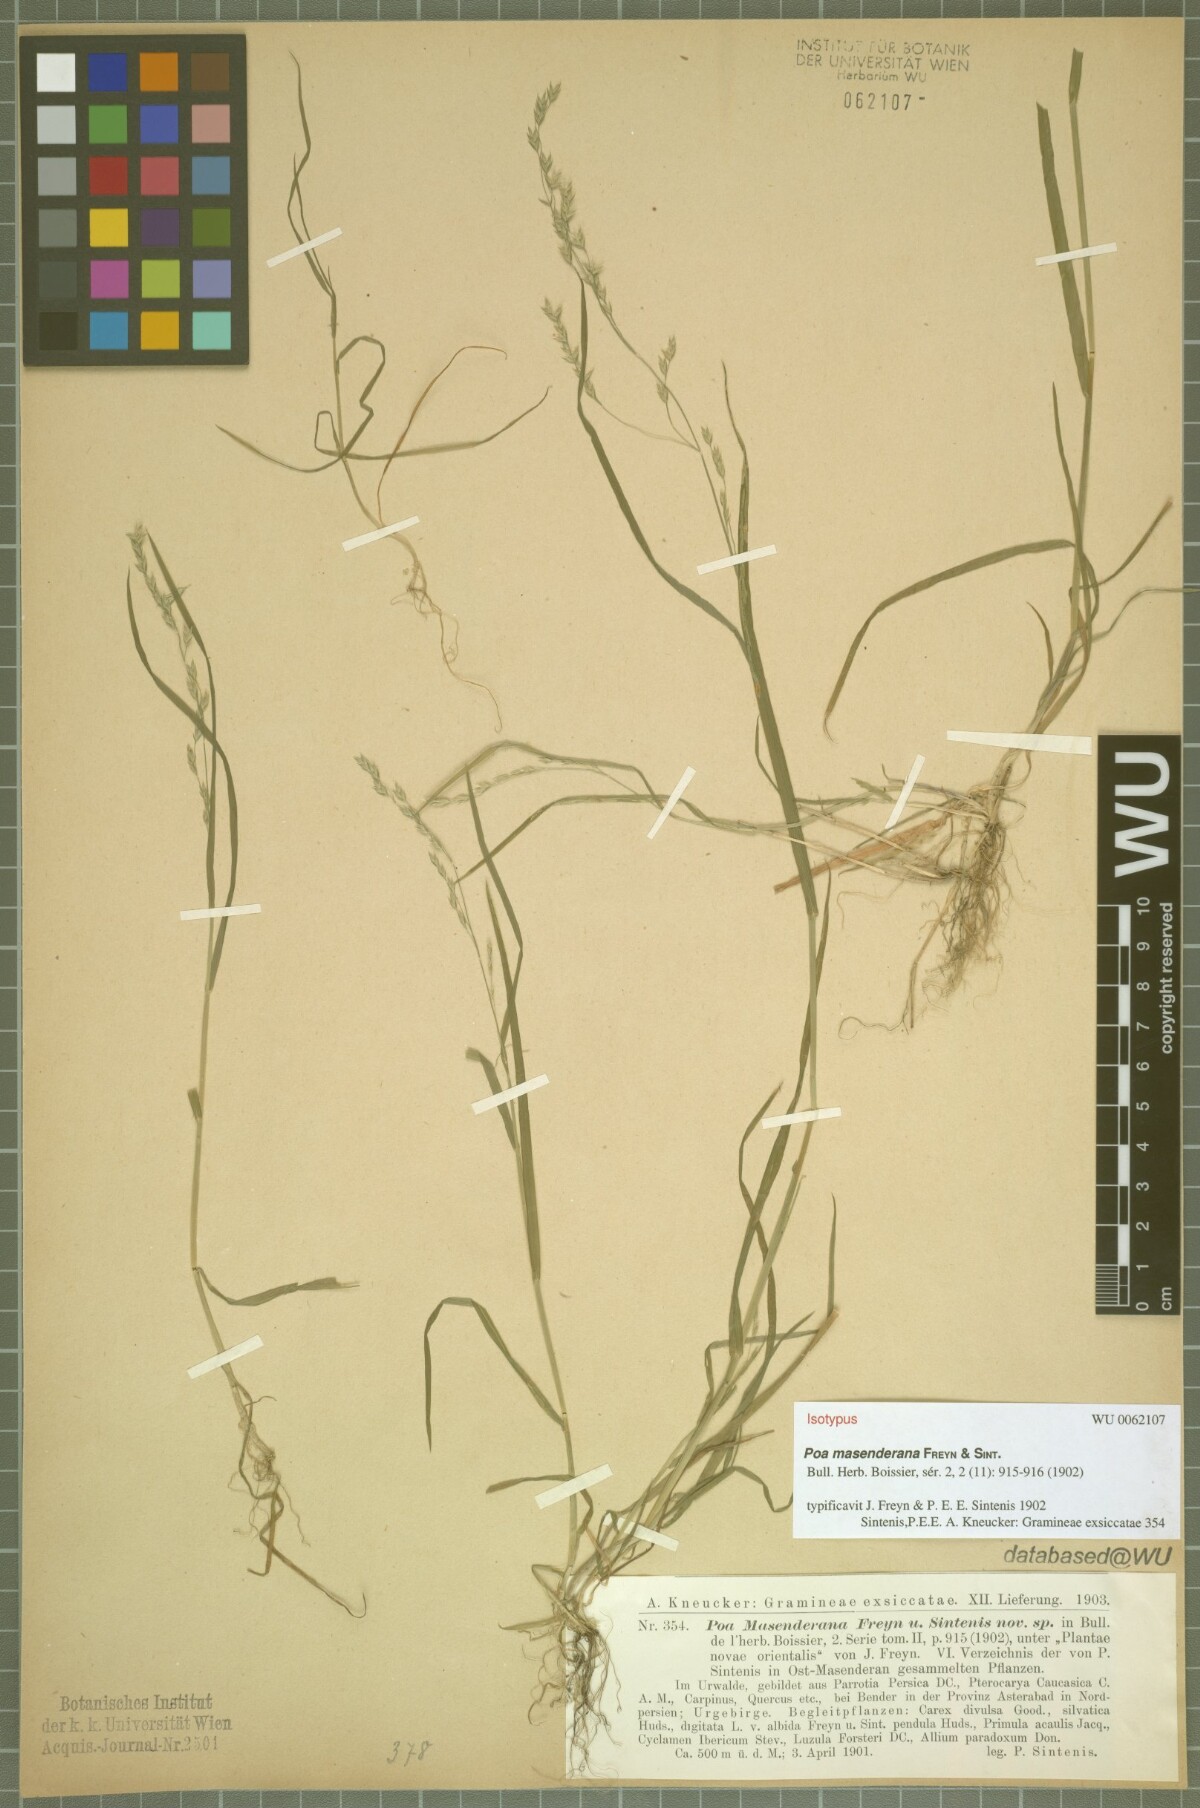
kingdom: Plantae
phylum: Tracheophyta
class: Liliopsida
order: Poales
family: Poaceae
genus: Poa
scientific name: Poa masenderana
